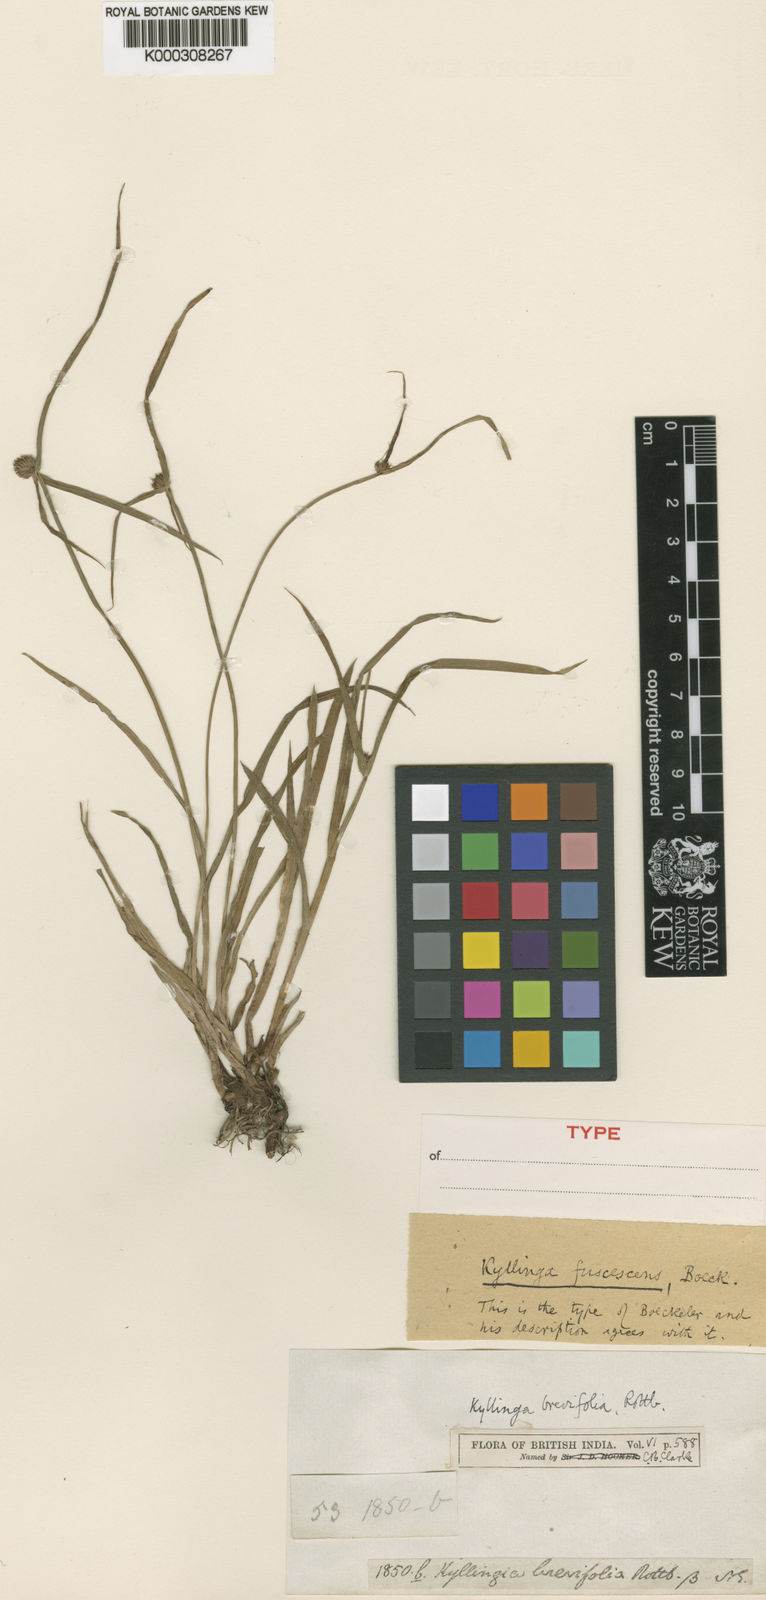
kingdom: Plantae
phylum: Tracheophyta
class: Liliopsida
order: Poales
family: Cyperaceae
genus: Cyperus
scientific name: Cyperus melanospermus
